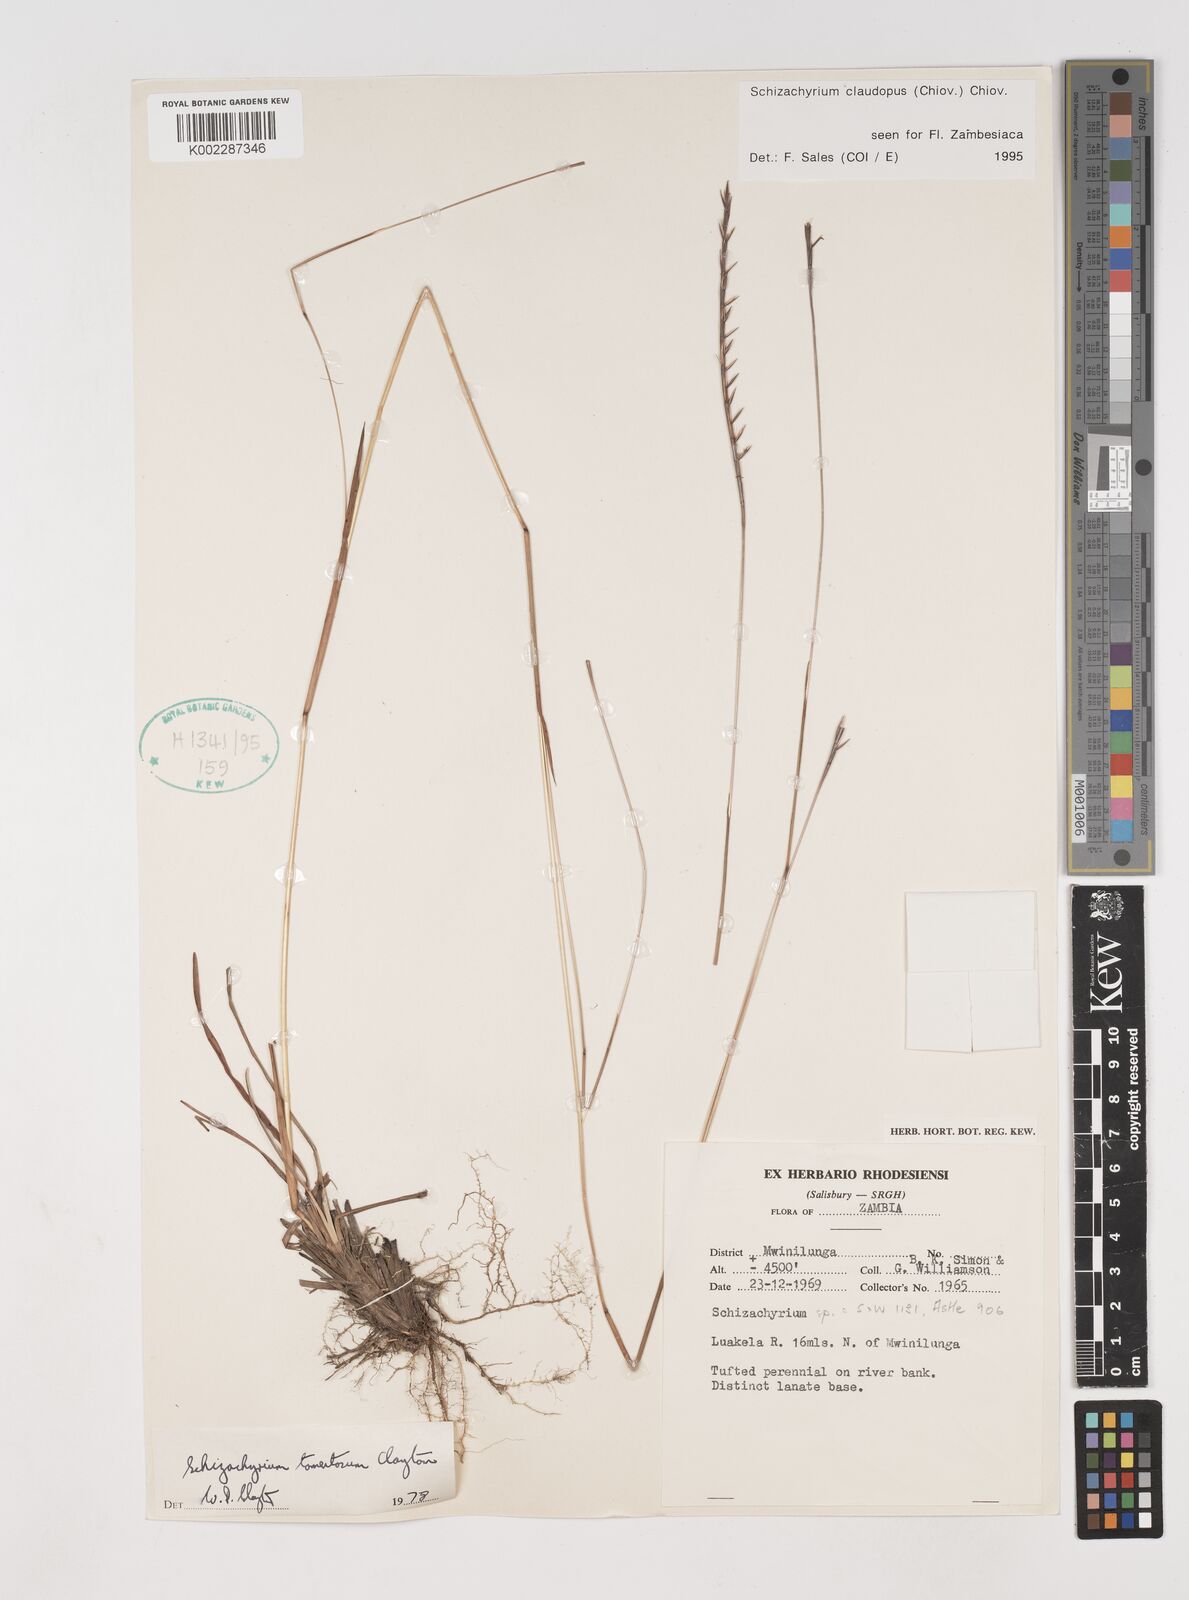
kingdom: Plantae
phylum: Tracheophyta
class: Liliopsida
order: Poales
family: Poaceae
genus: Schizachyrium
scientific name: Schizachyrium claudopus
